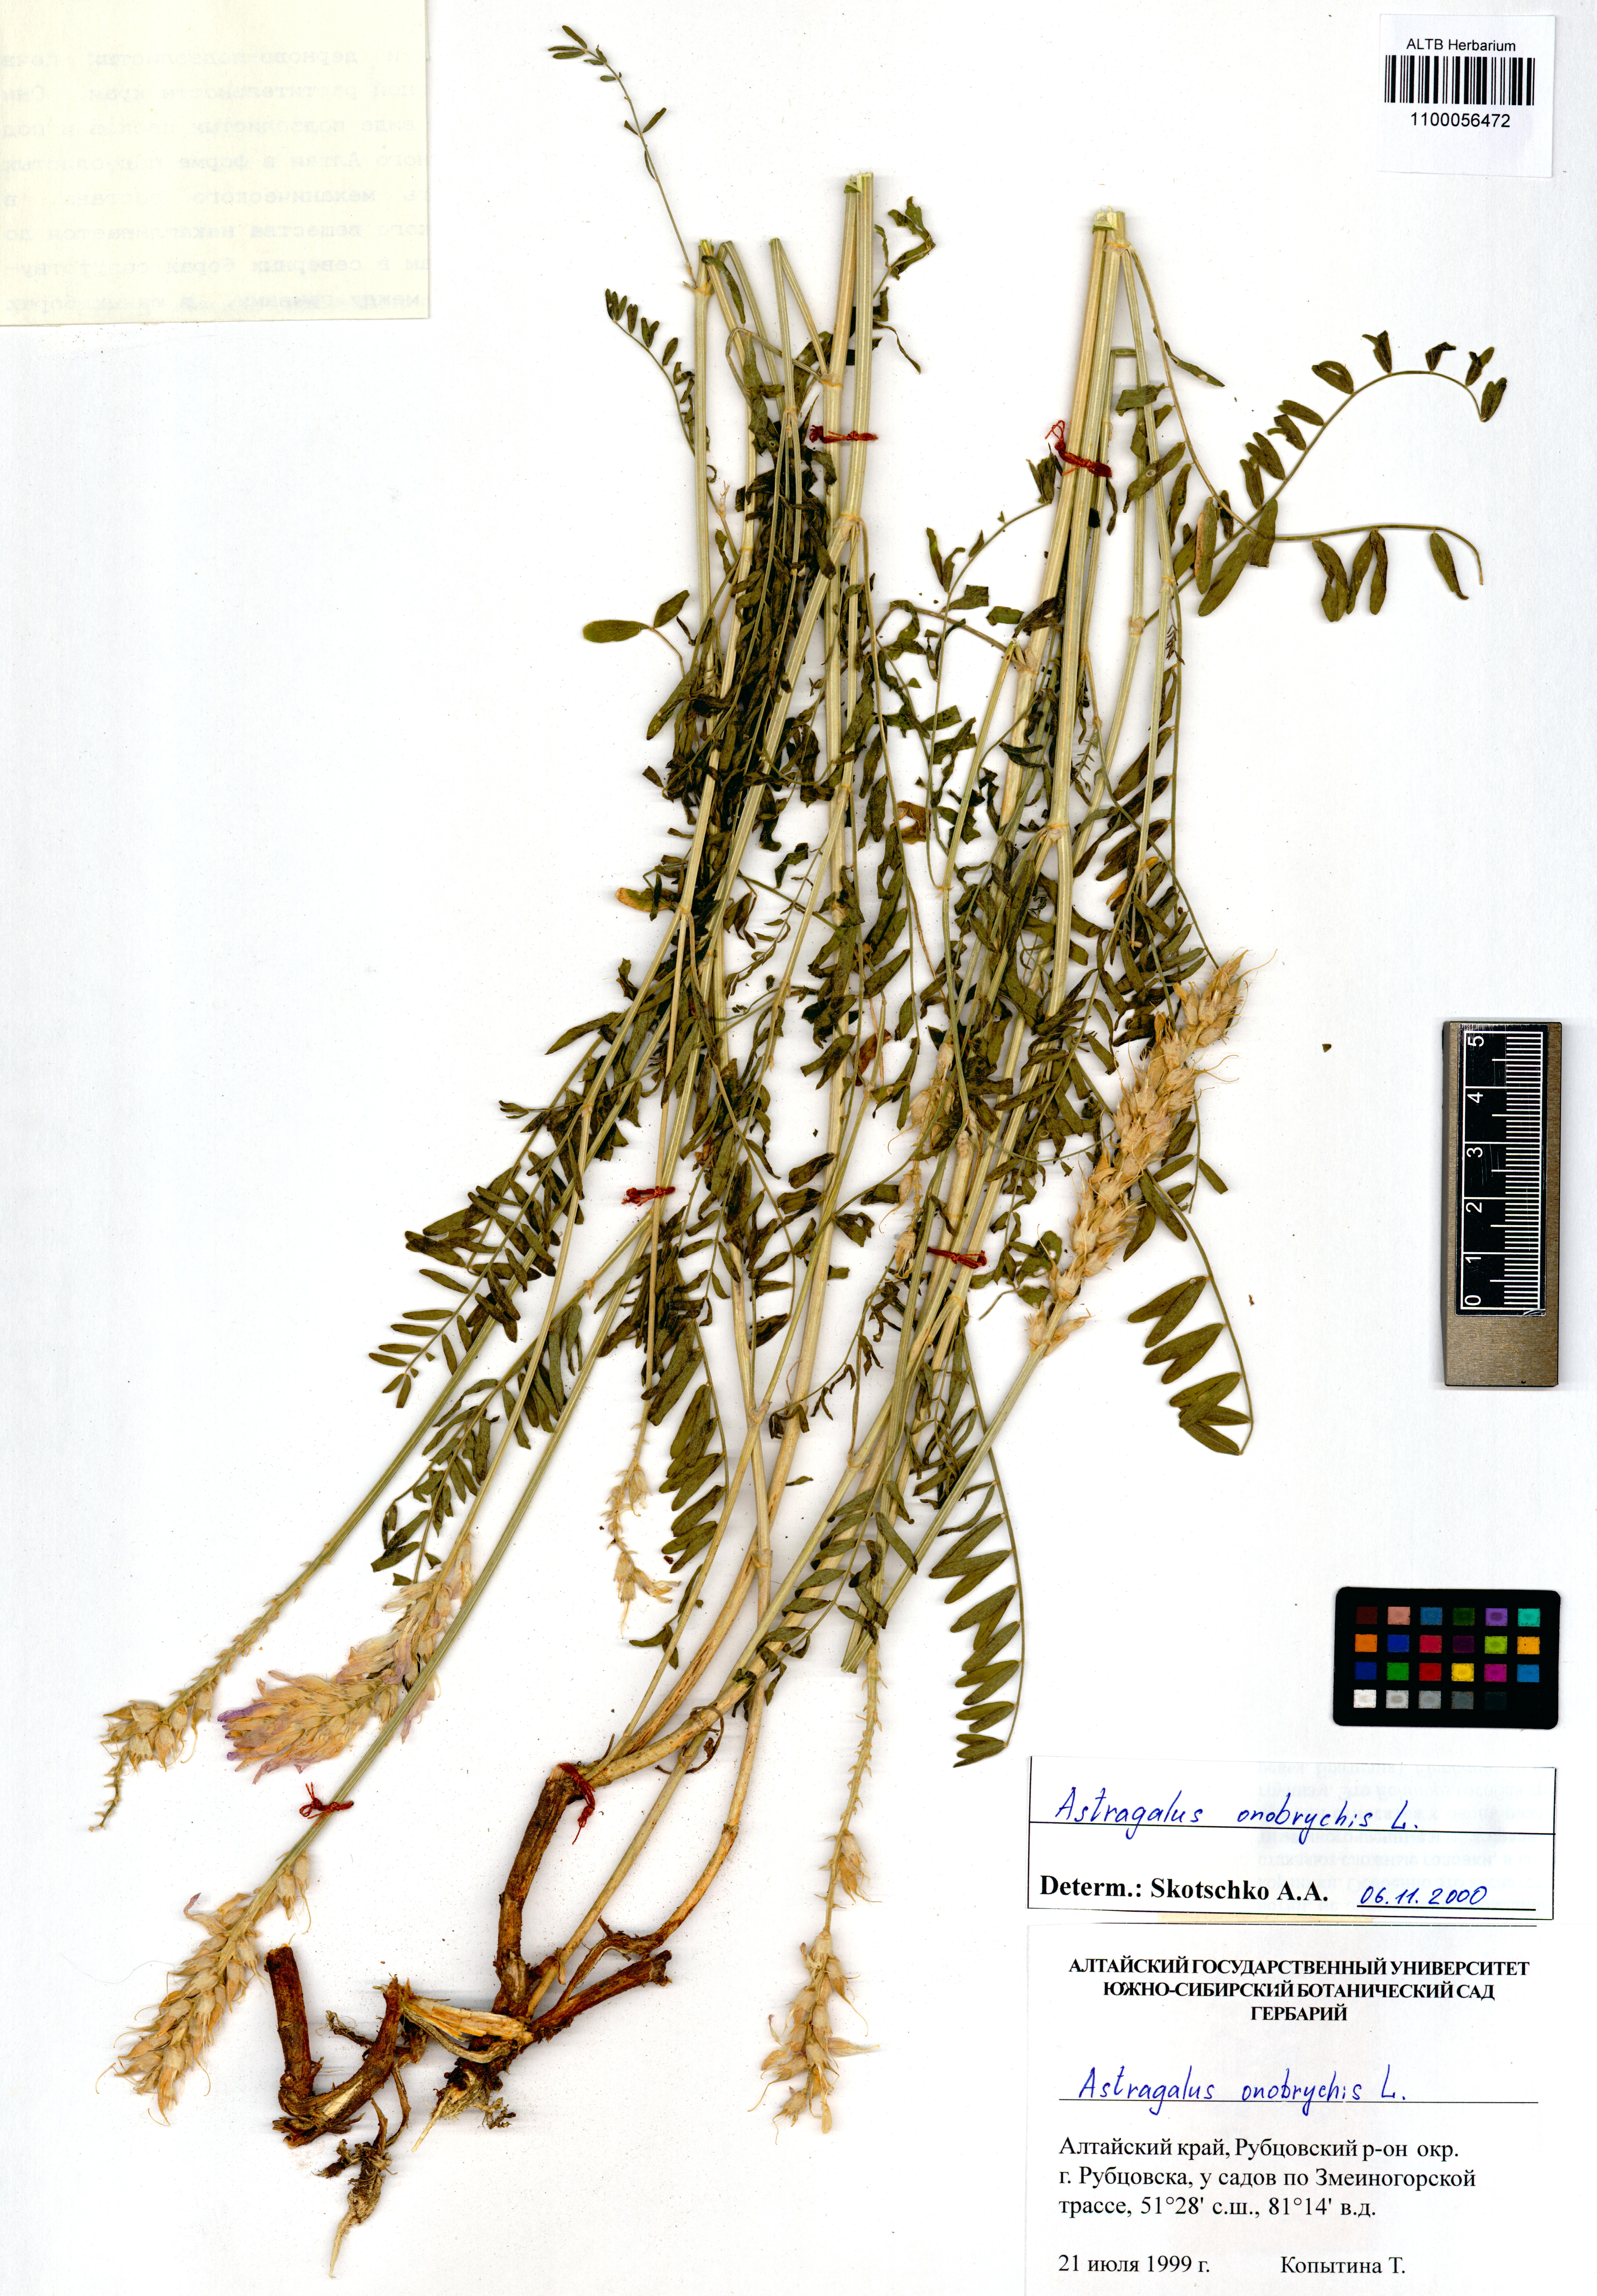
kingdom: Plantae
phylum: Tracheophyta
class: Magnoliopsida
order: Fabales
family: Fabaceae
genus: Hedysarum
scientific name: Hedysarum gmelinii
